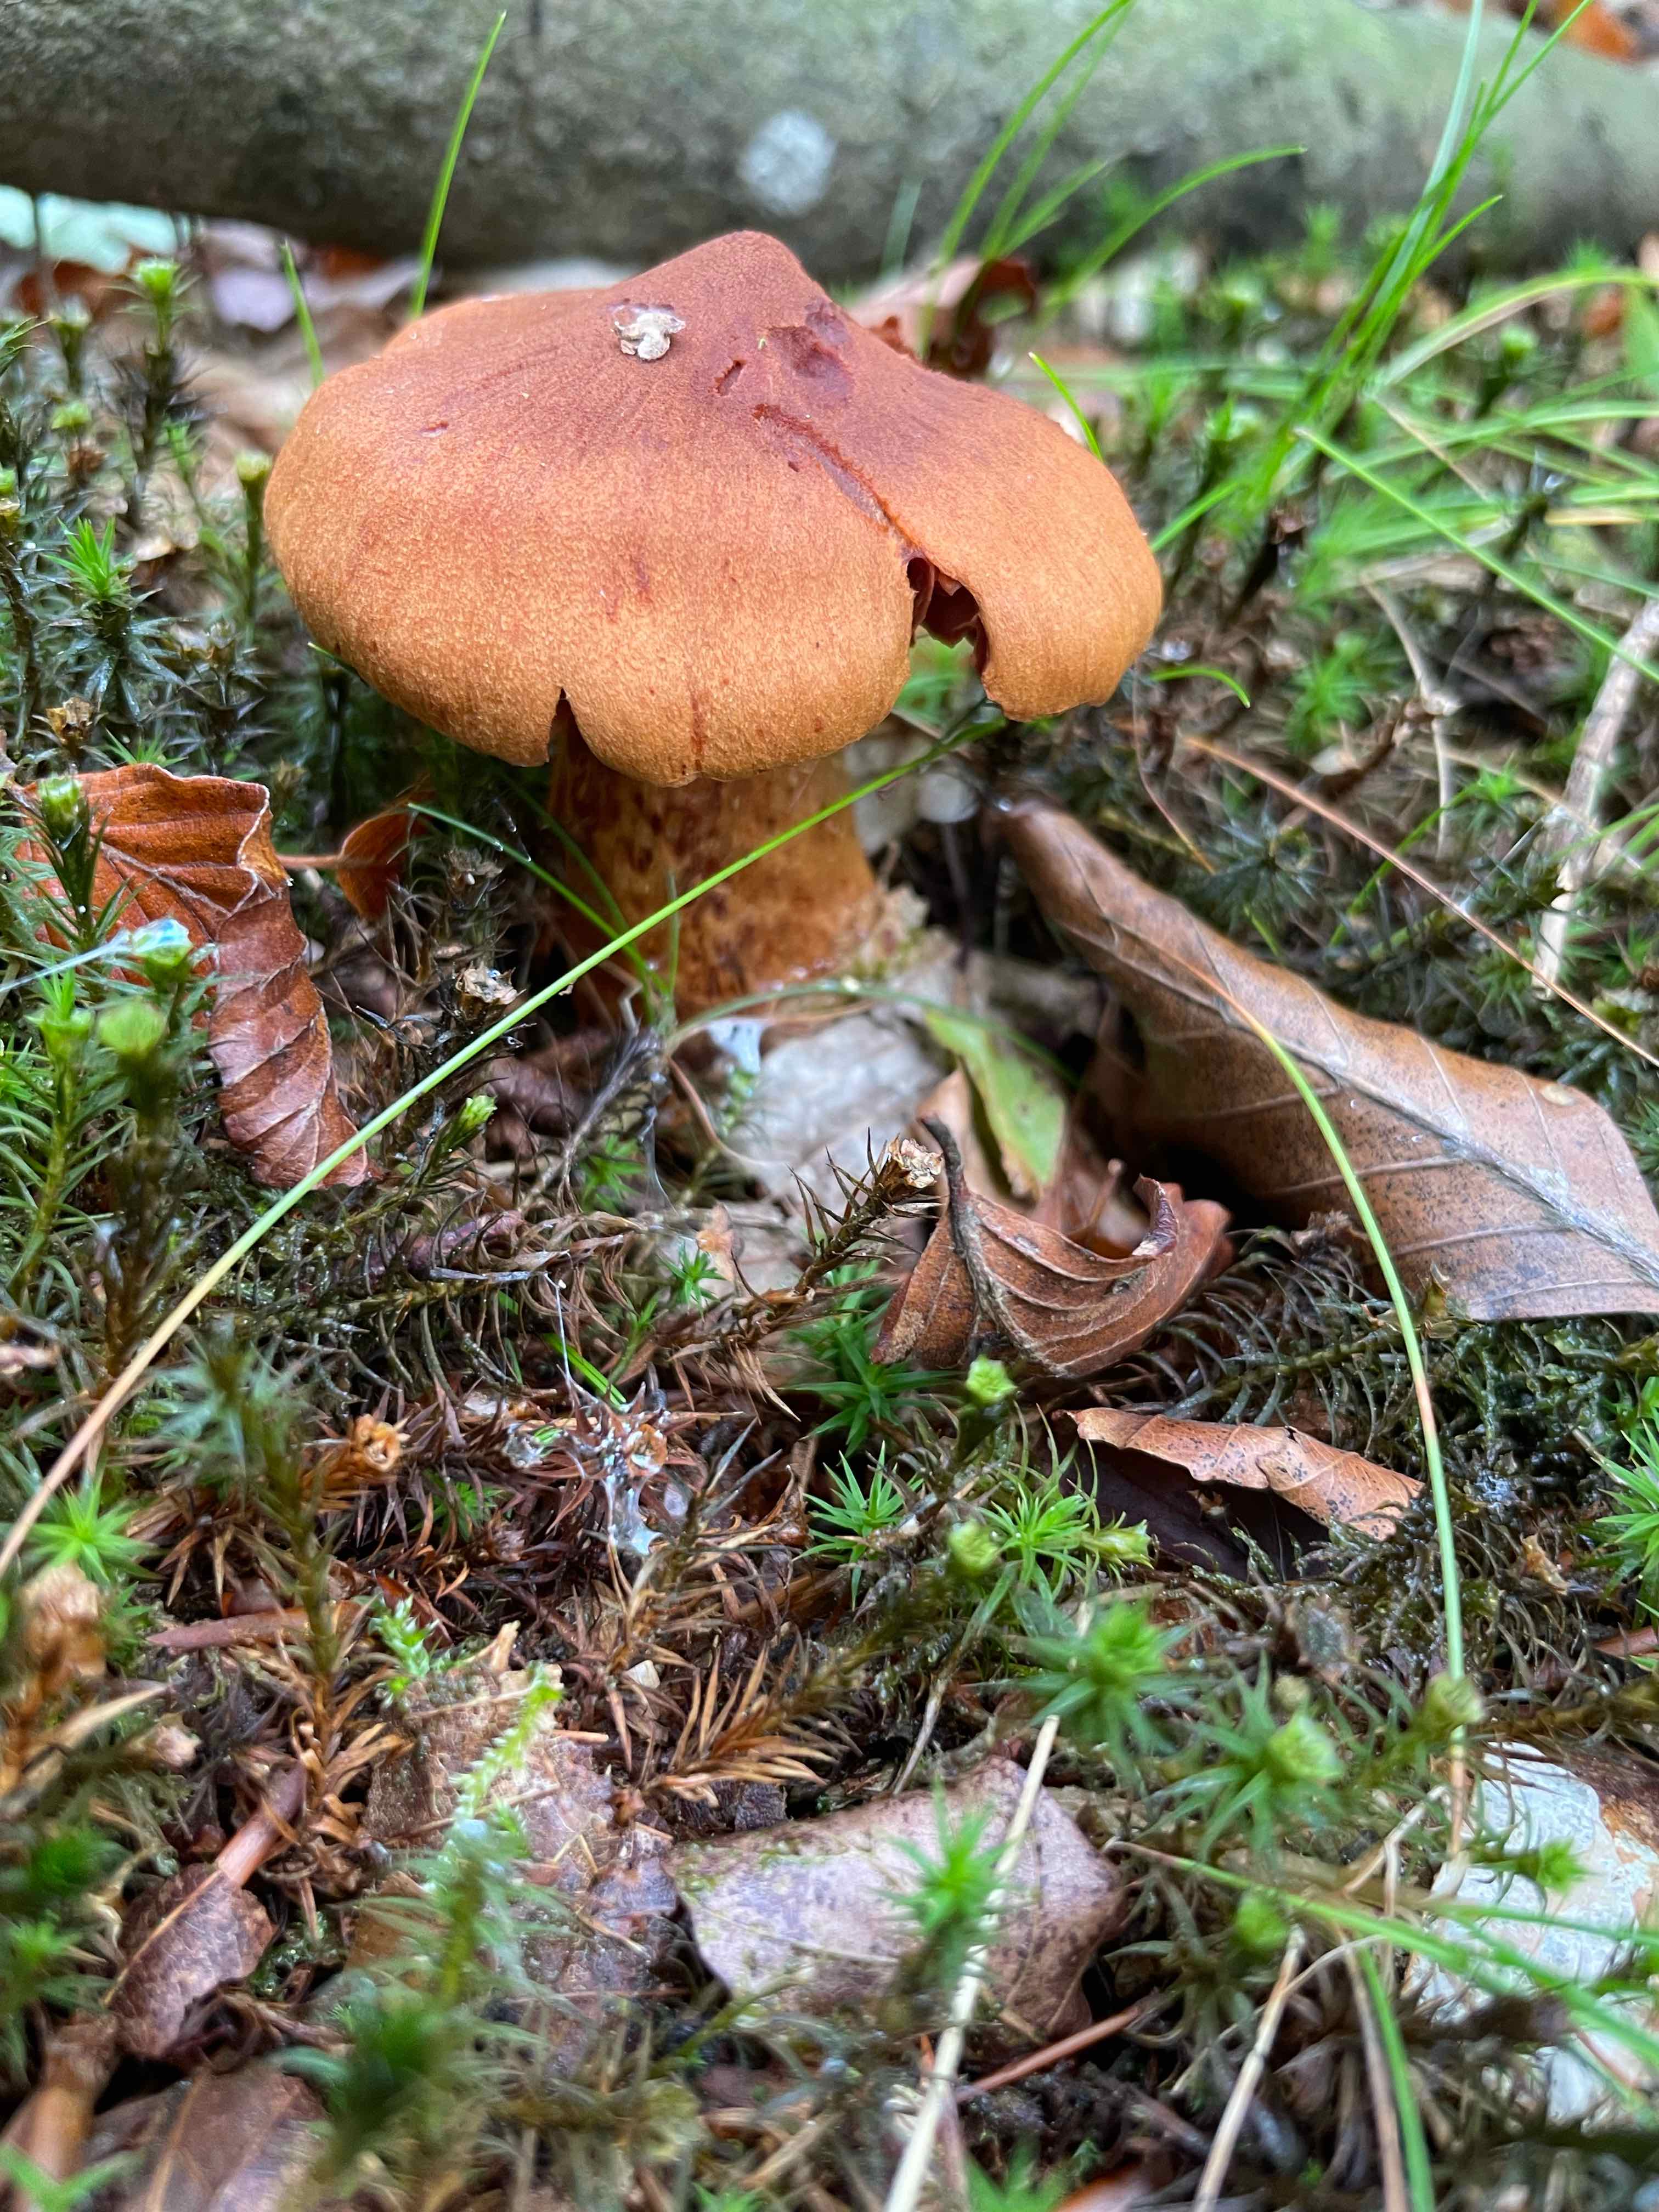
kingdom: Fungi
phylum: Basidiomycota
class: Agaricomycetes
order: Agaricales
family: Cortinariaceae
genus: Cortinarius
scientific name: Cortinarius rubellus
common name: puklet gift-slørhat
